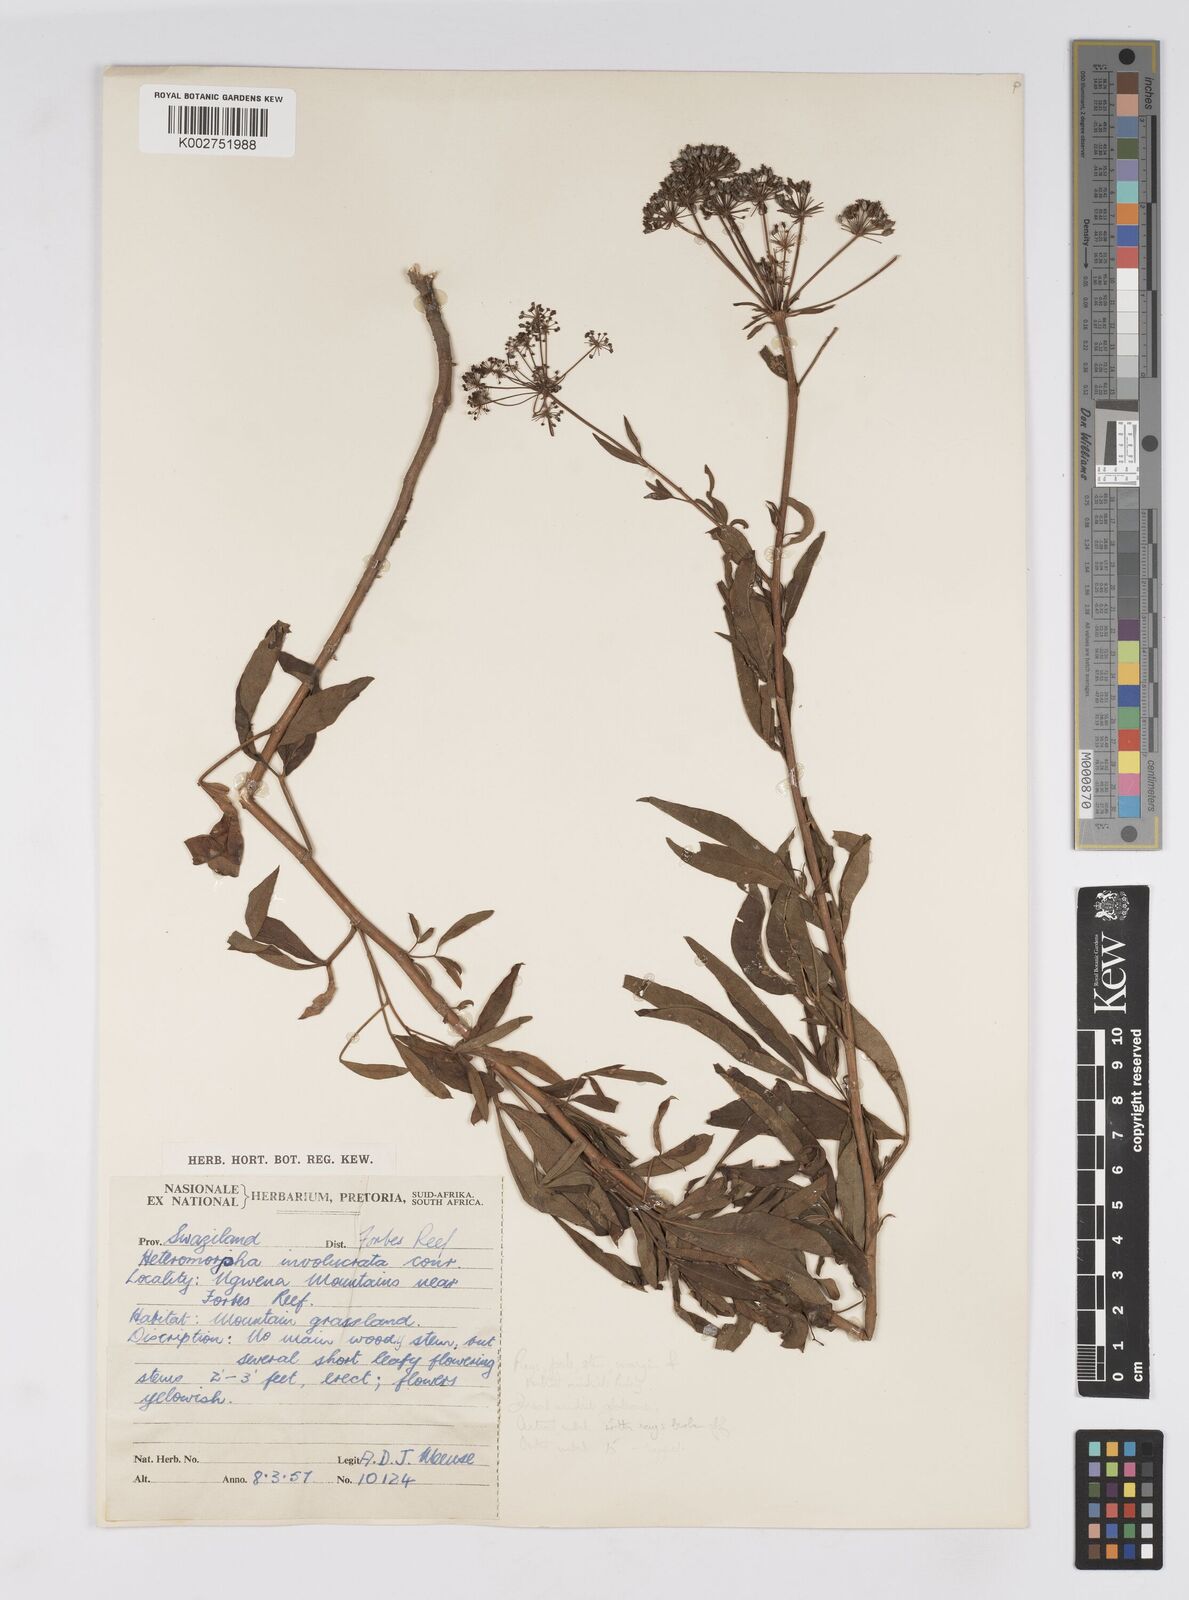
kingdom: Plantae
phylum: Tracheophyta
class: Magnoliopsida
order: Apiales
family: Apiaceae
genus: Heteromorpha
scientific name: Heteromorpha involucrata
